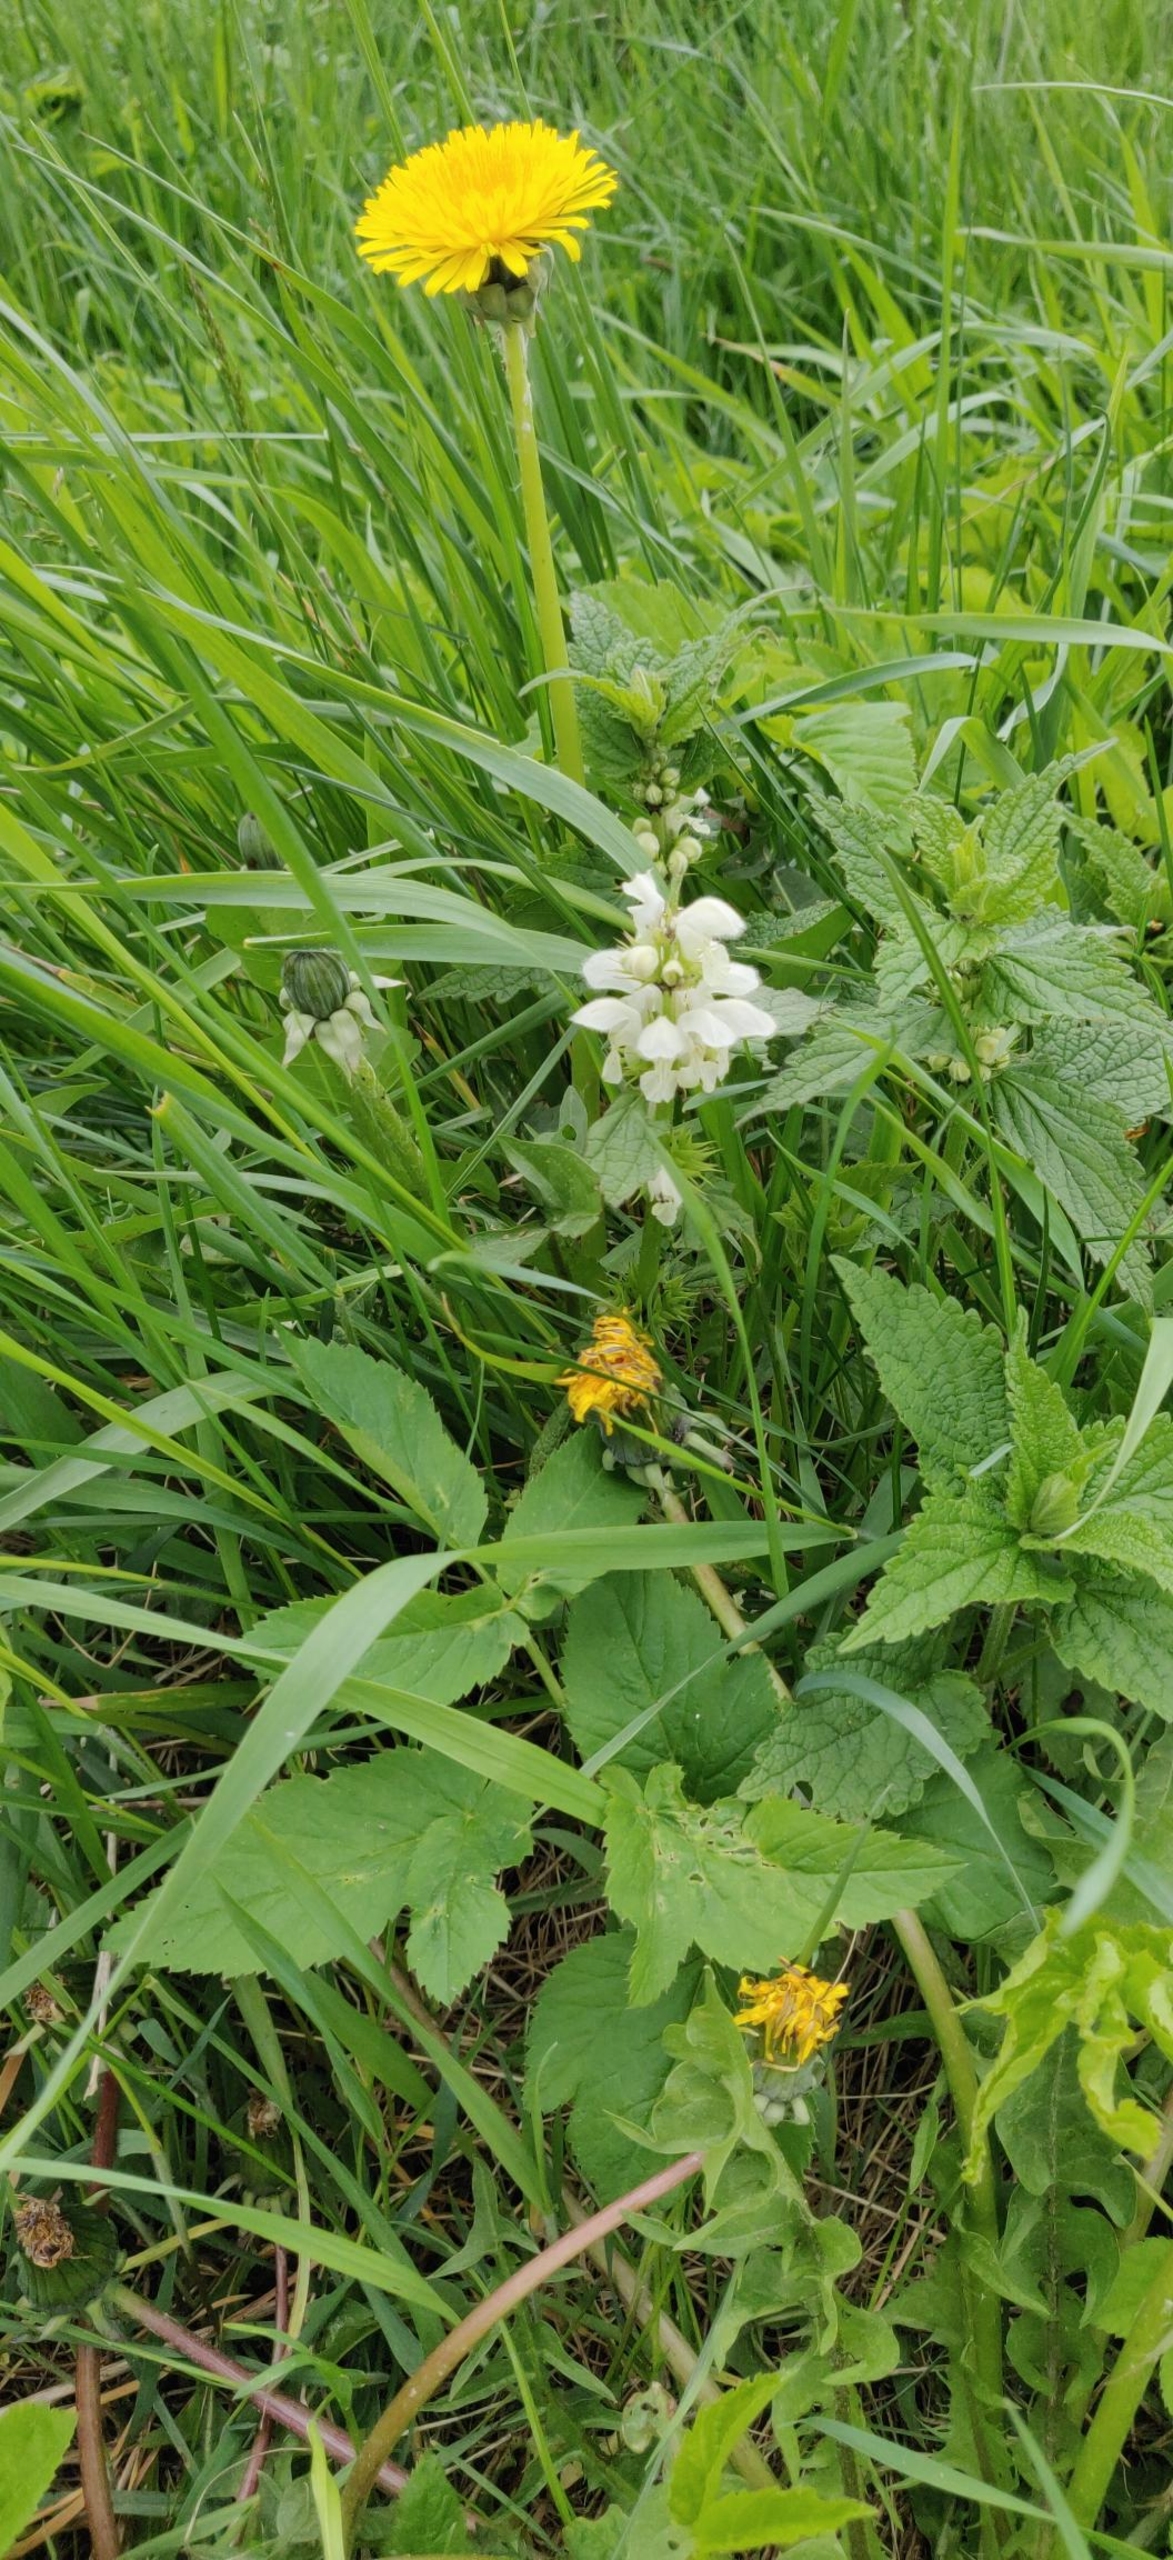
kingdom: Plantae
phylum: Tracheophyta
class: Magnoliopsida
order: Lamiales
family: Lamiaceae
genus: Lamium
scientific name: Lamium album
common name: Døvnælde
